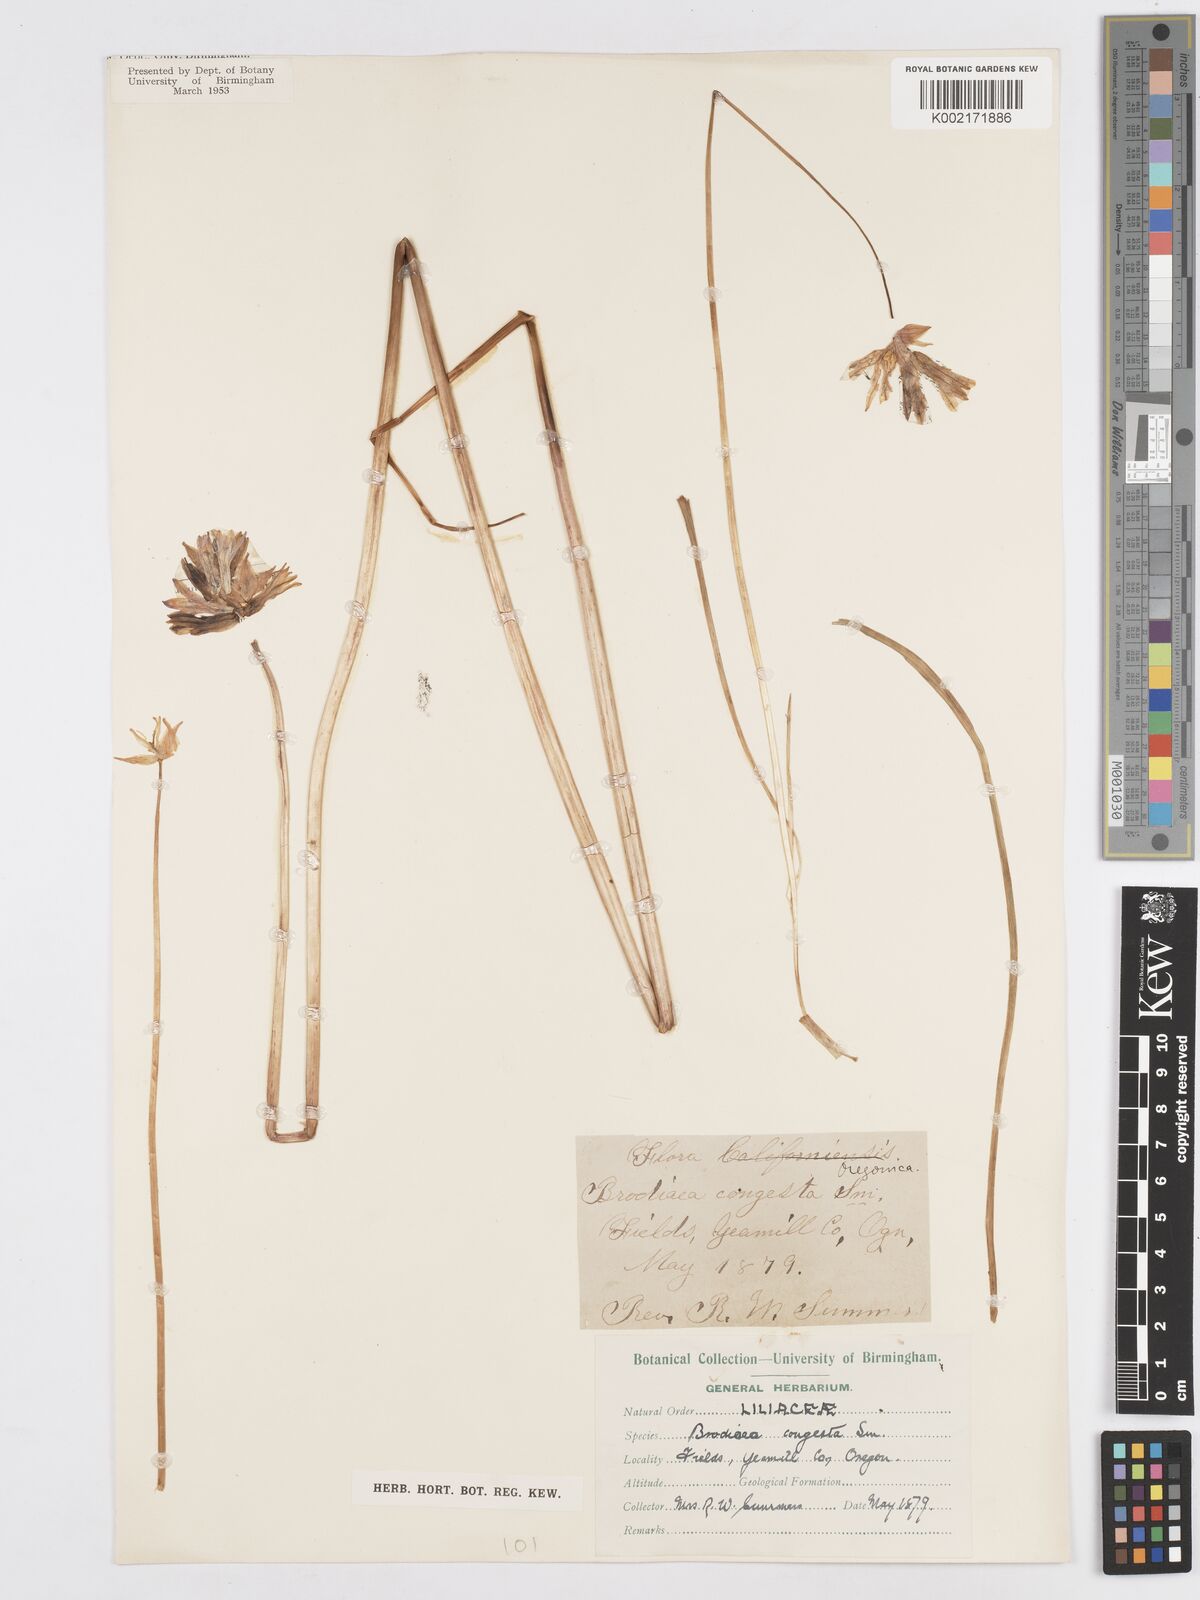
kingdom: Plantae
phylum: Tracheophyta
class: Liliopsida
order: Asparagales
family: Asparagaceae
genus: Dichelostemma
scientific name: Dichelostemma congestum
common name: Fork-tooth ookow
